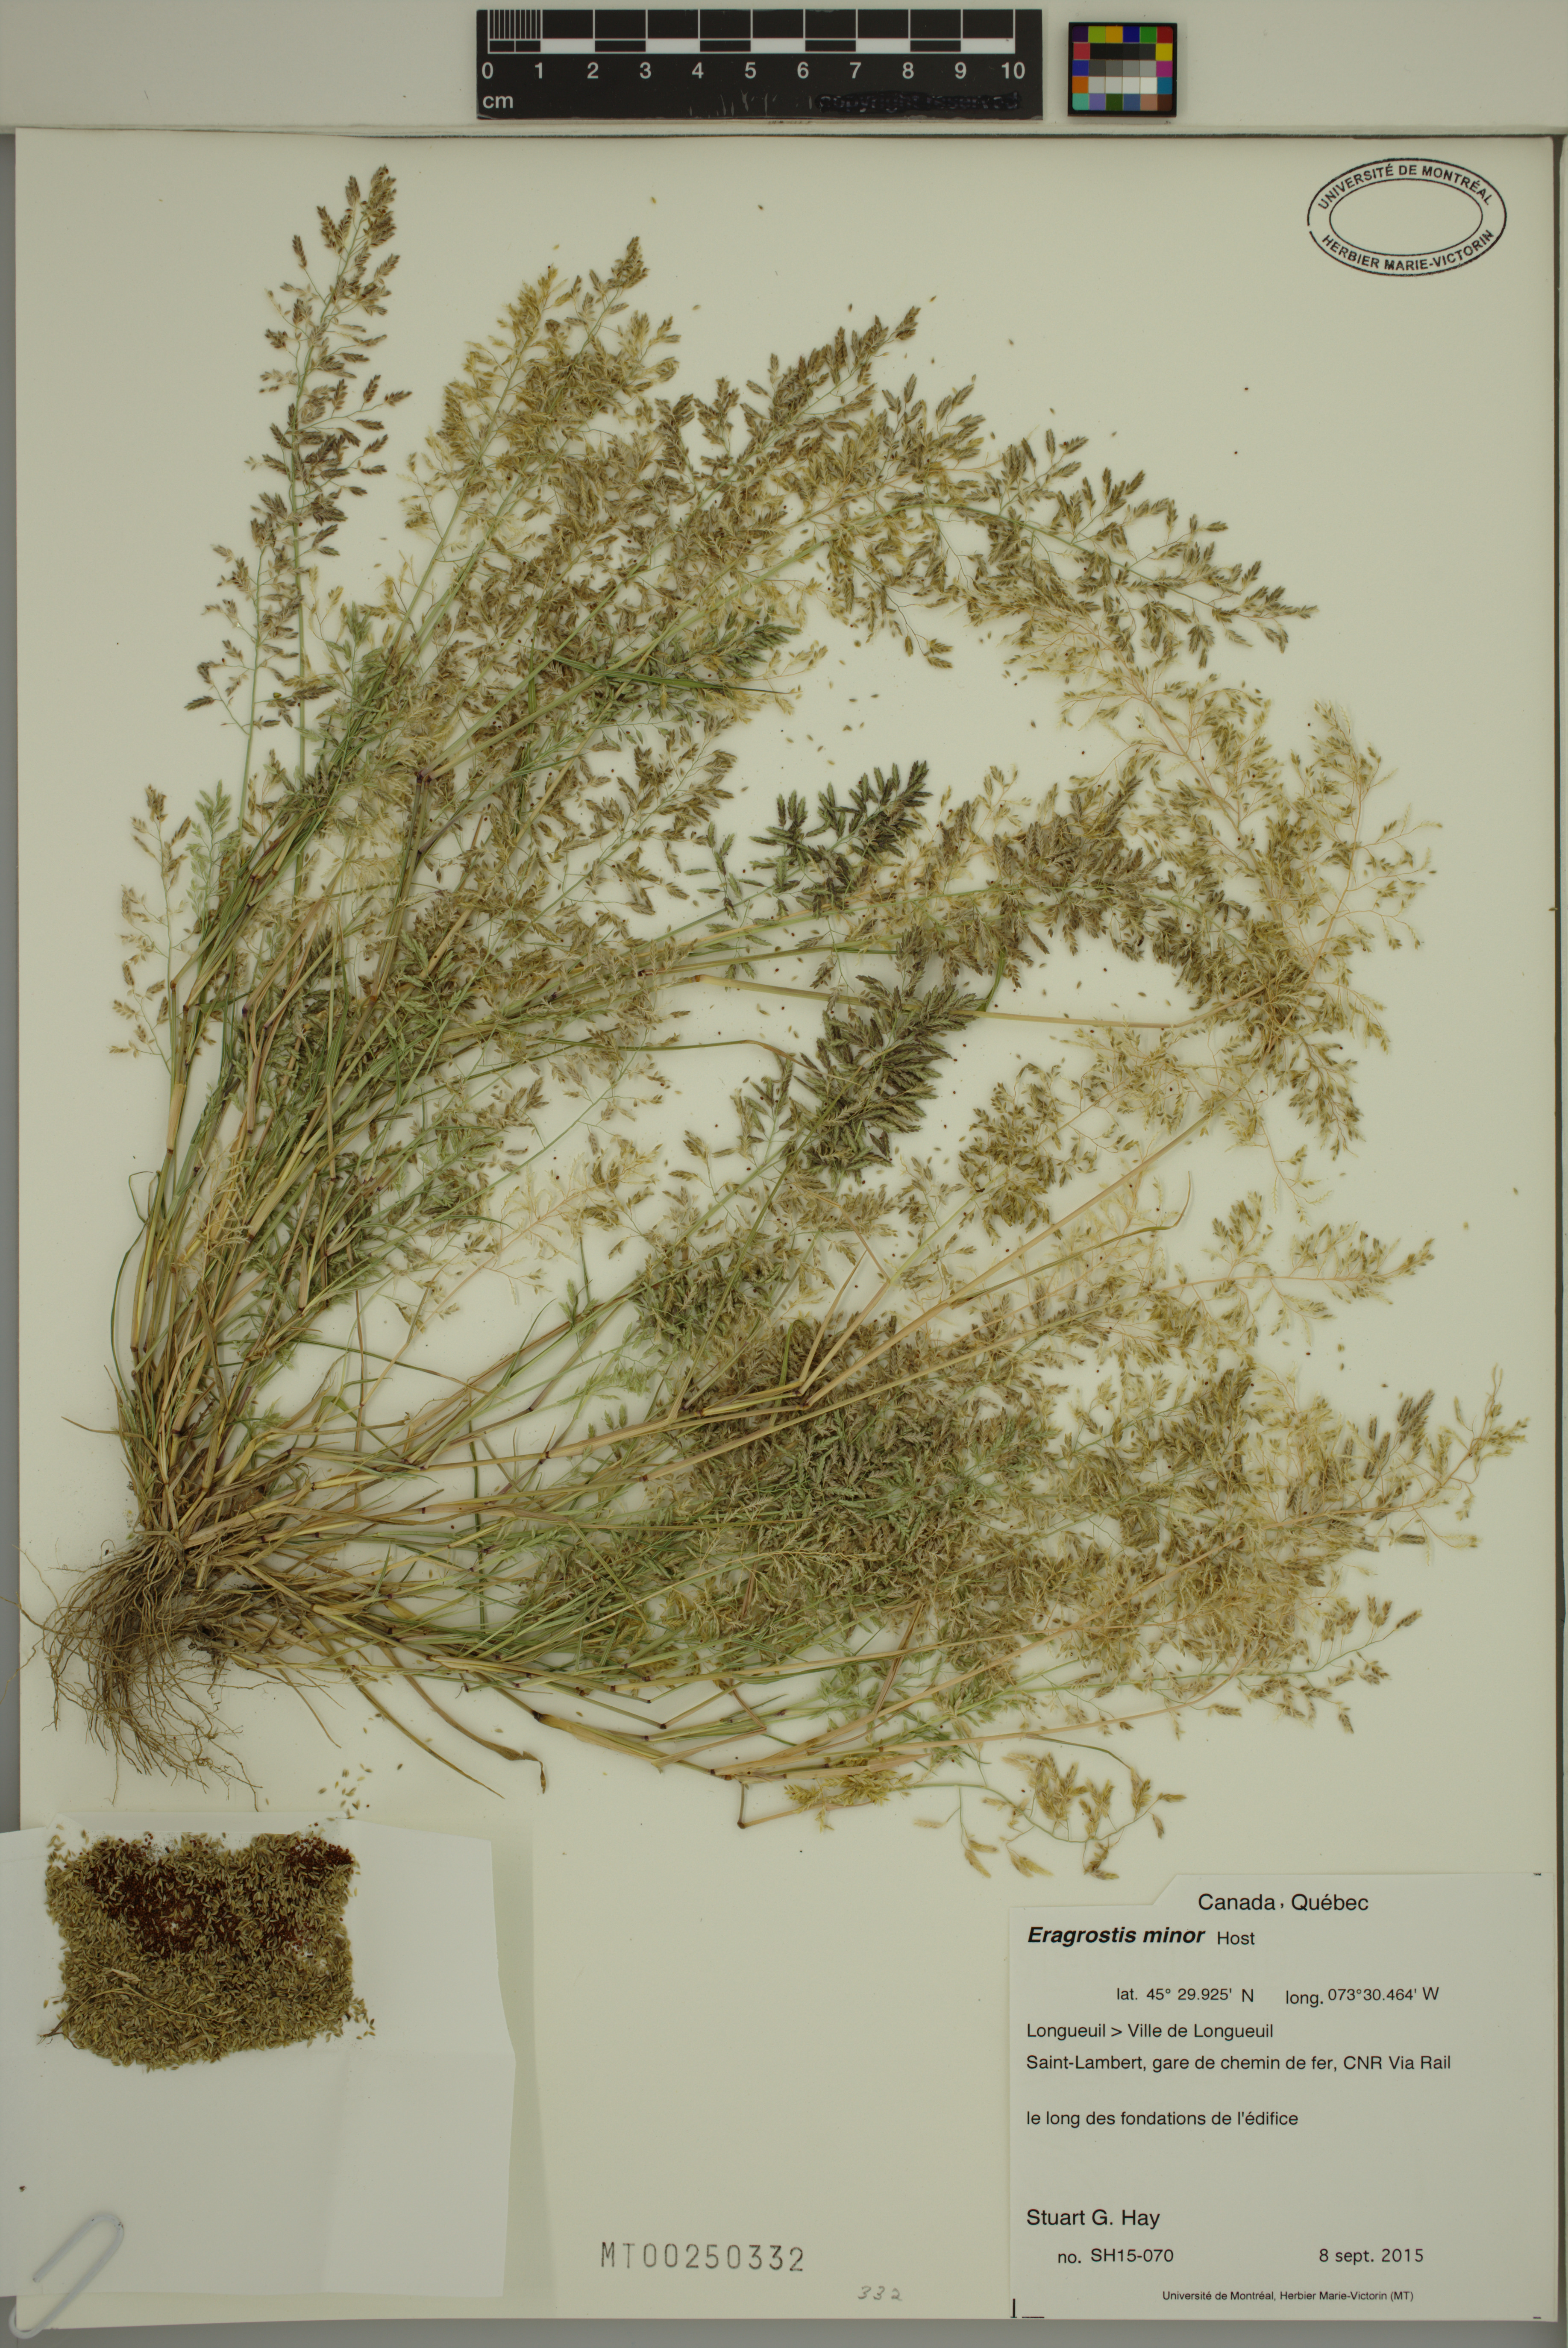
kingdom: Plantae
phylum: Tracheophyta
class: Liliopsida
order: Poales
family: Poaceae
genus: Eragrostis
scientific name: Eragrostis minor
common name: Small love-grass
